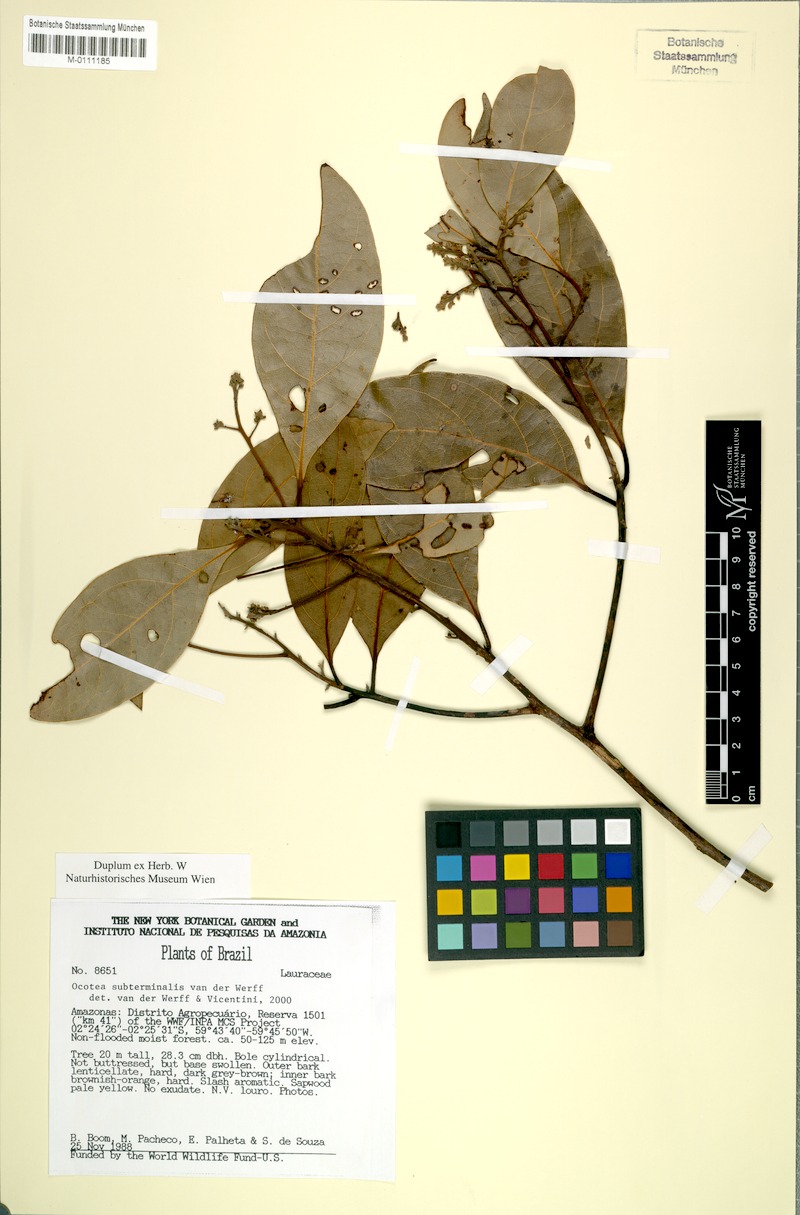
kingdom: Plantae
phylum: Tracheophyta
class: Magnoliopsida
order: Laurales
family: Lauraceae
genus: Ocotea
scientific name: Ocotea subterminalis
